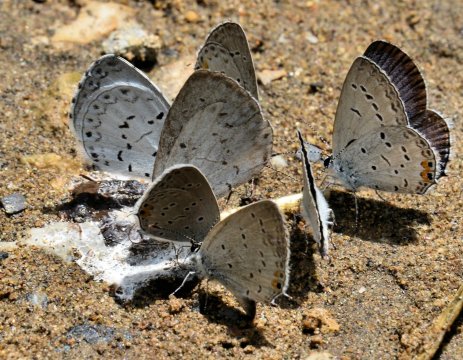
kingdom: Animalia
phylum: Arthropoda
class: Insecta
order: Lepidoptera
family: Lycaenidae
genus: Celastrina
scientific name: Celastrina neglectamajor
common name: Appalachian Azure
